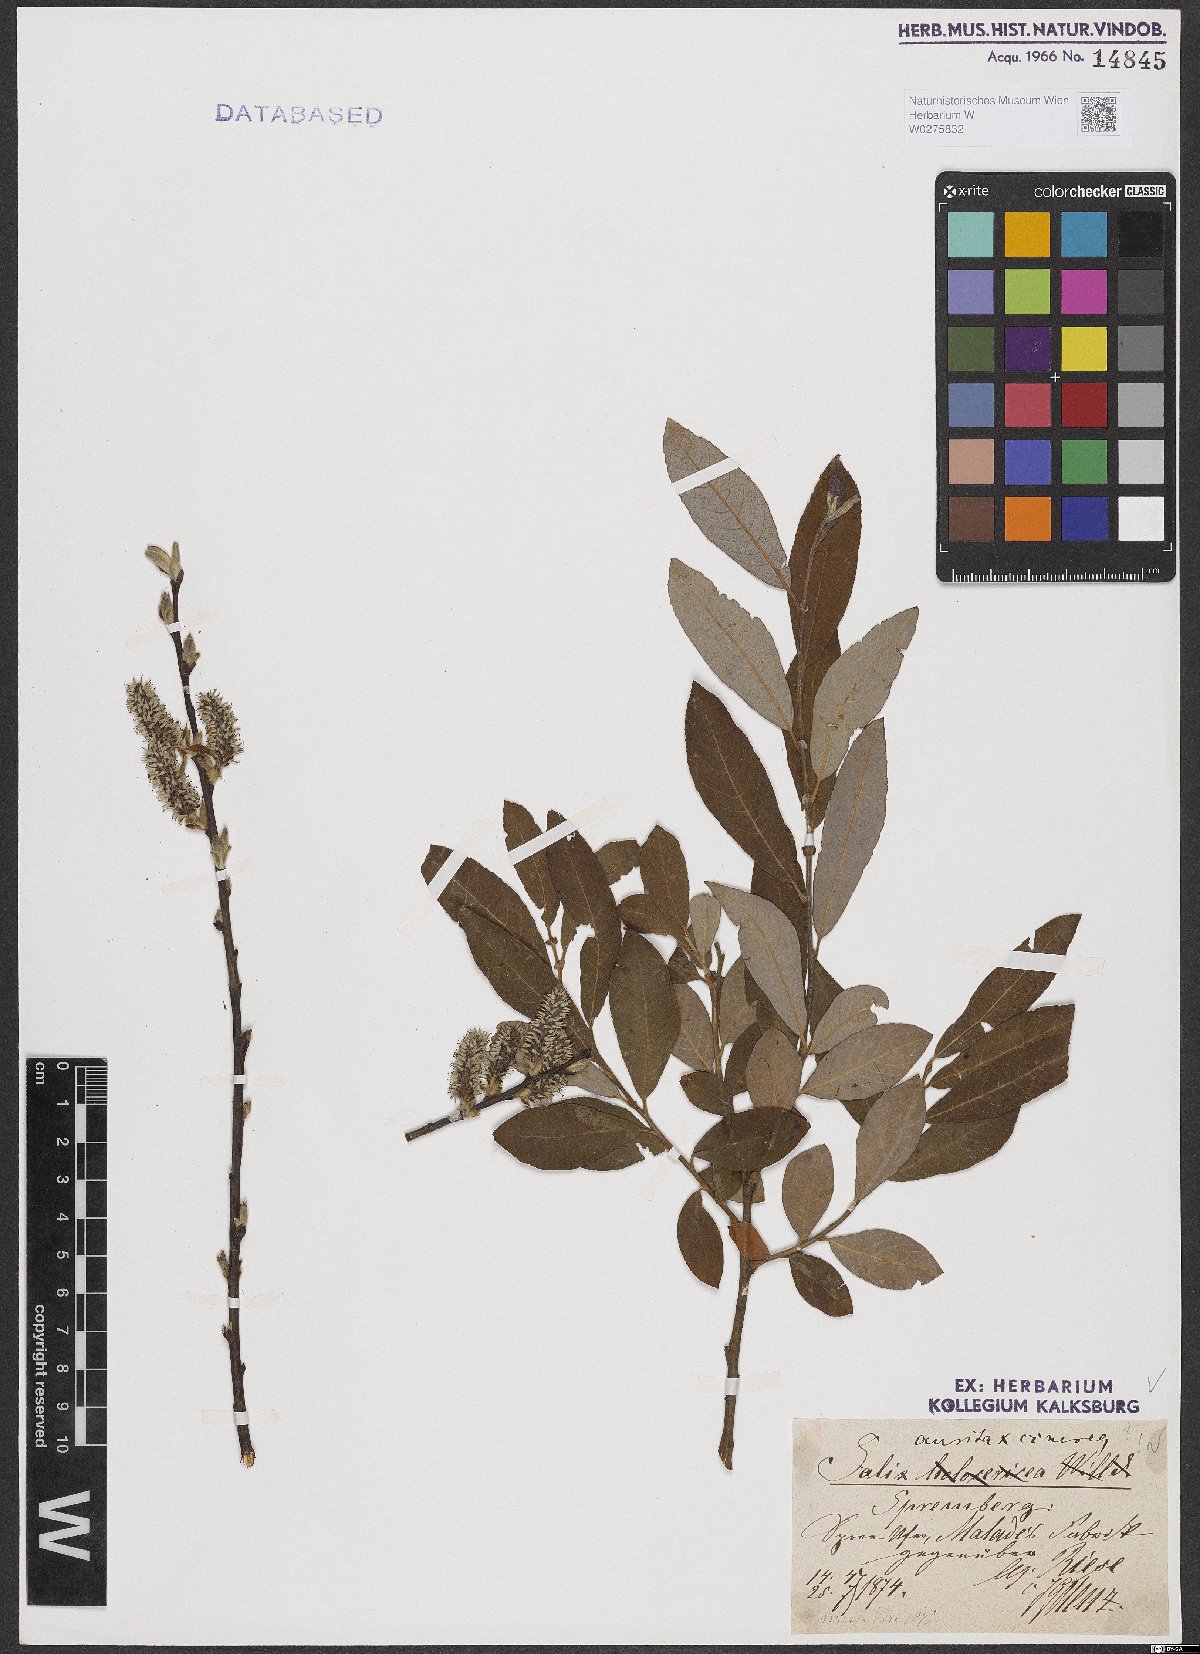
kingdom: Plantae
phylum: Tracheophyta
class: Magnoliopsida
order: Malpighiales
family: Salicaceae
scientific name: Salicaceae
